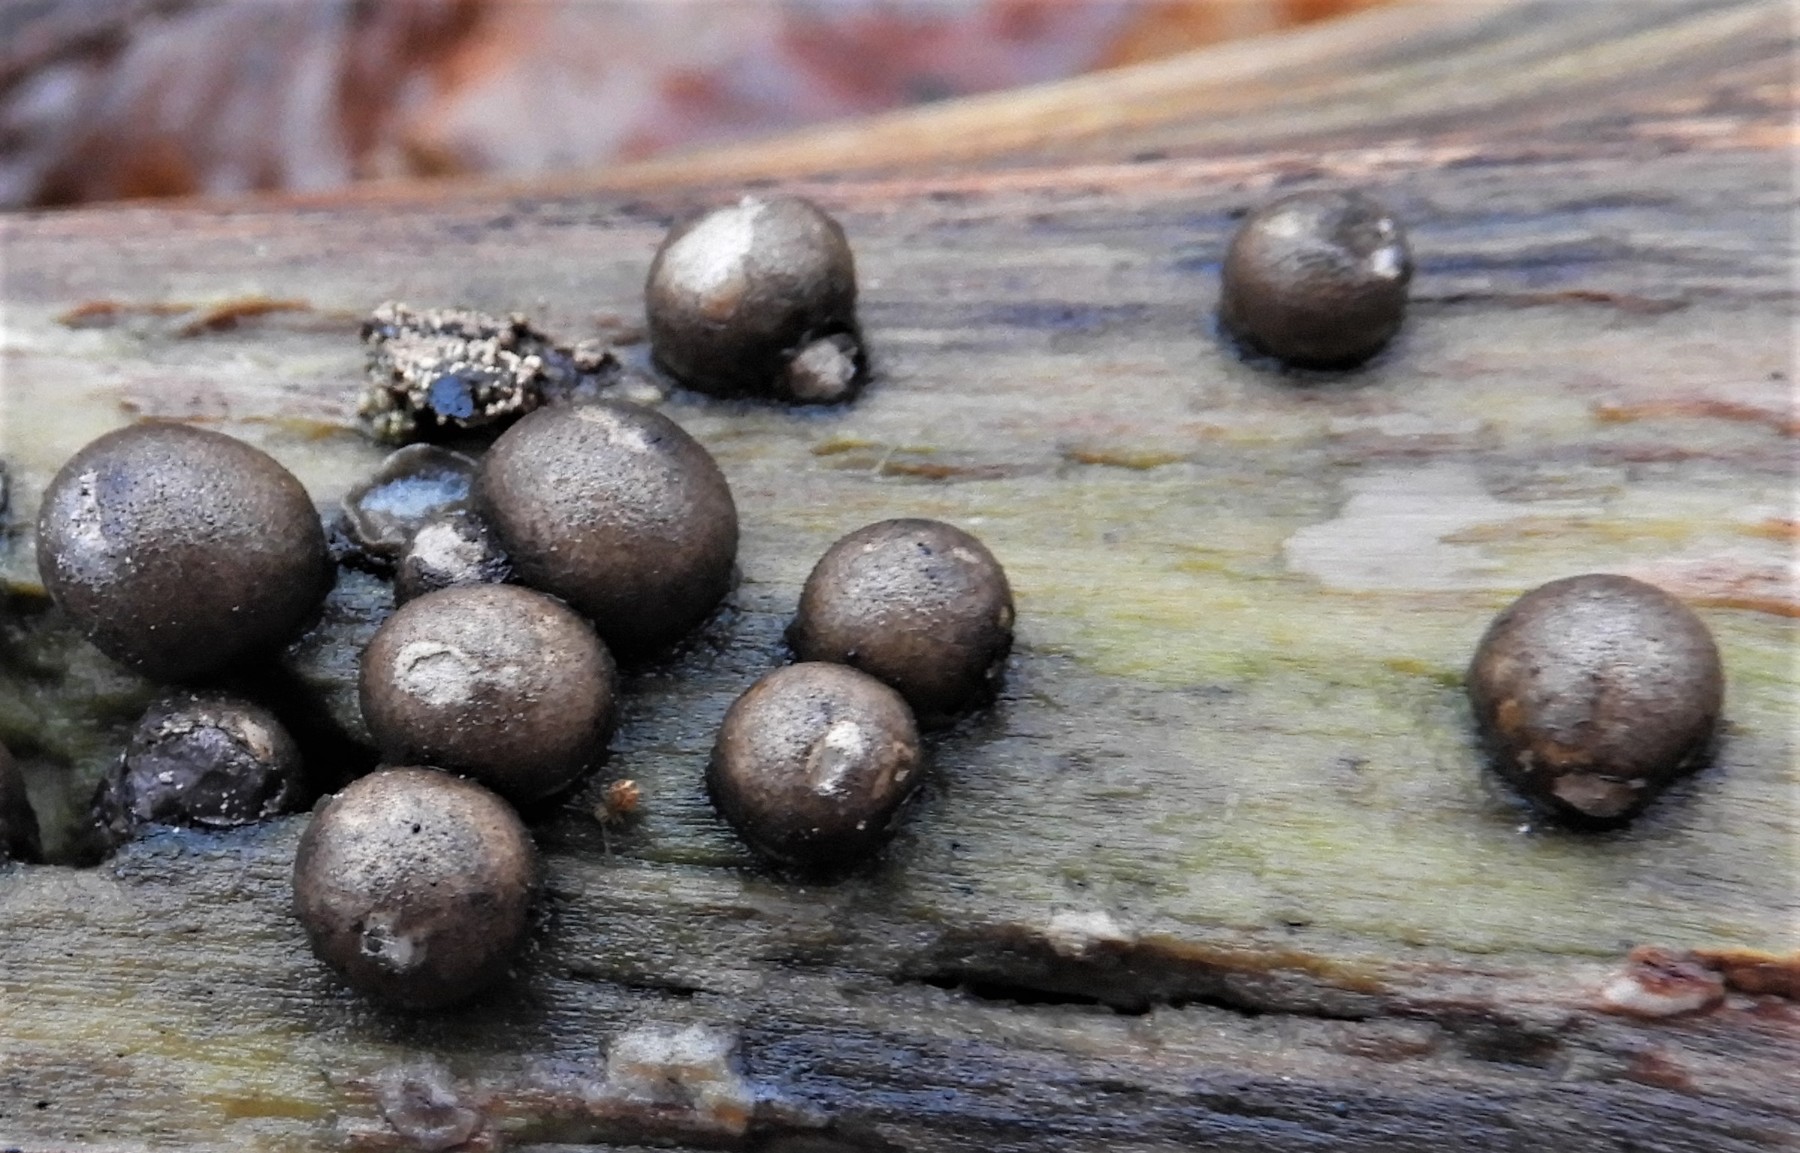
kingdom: Protozoa
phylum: Mycetozoa
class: Myxomycetes
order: Cribrariales
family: Tubiferaceae
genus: Lycogala
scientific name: Lycogala epidendrum
